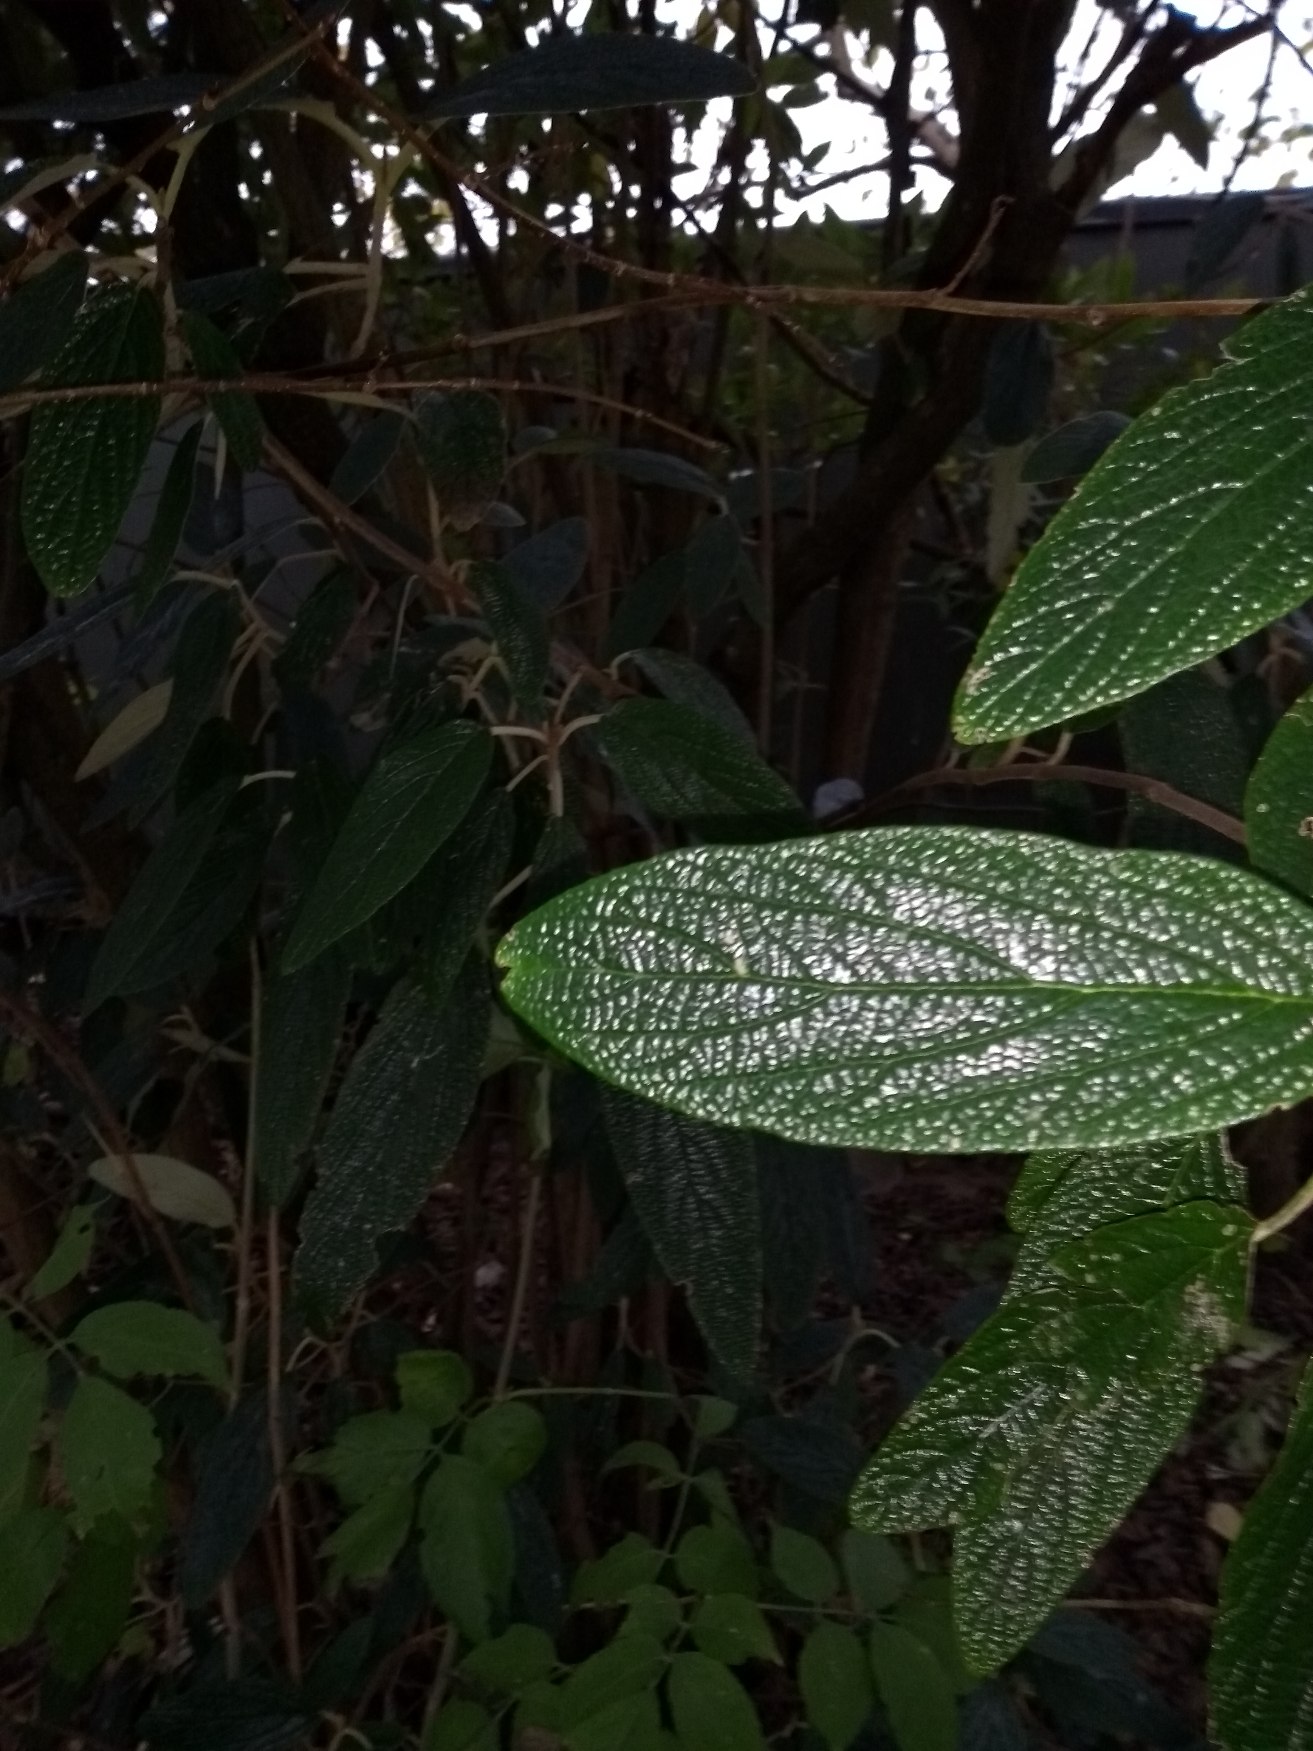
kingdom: Plantae
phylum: Tracheophyta
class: Magnoliopsida
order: Dipsacales
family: Viburnaceae
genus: Viburnum
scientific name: Viburnum
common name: Pibe-kvalkved × rynkeblad
